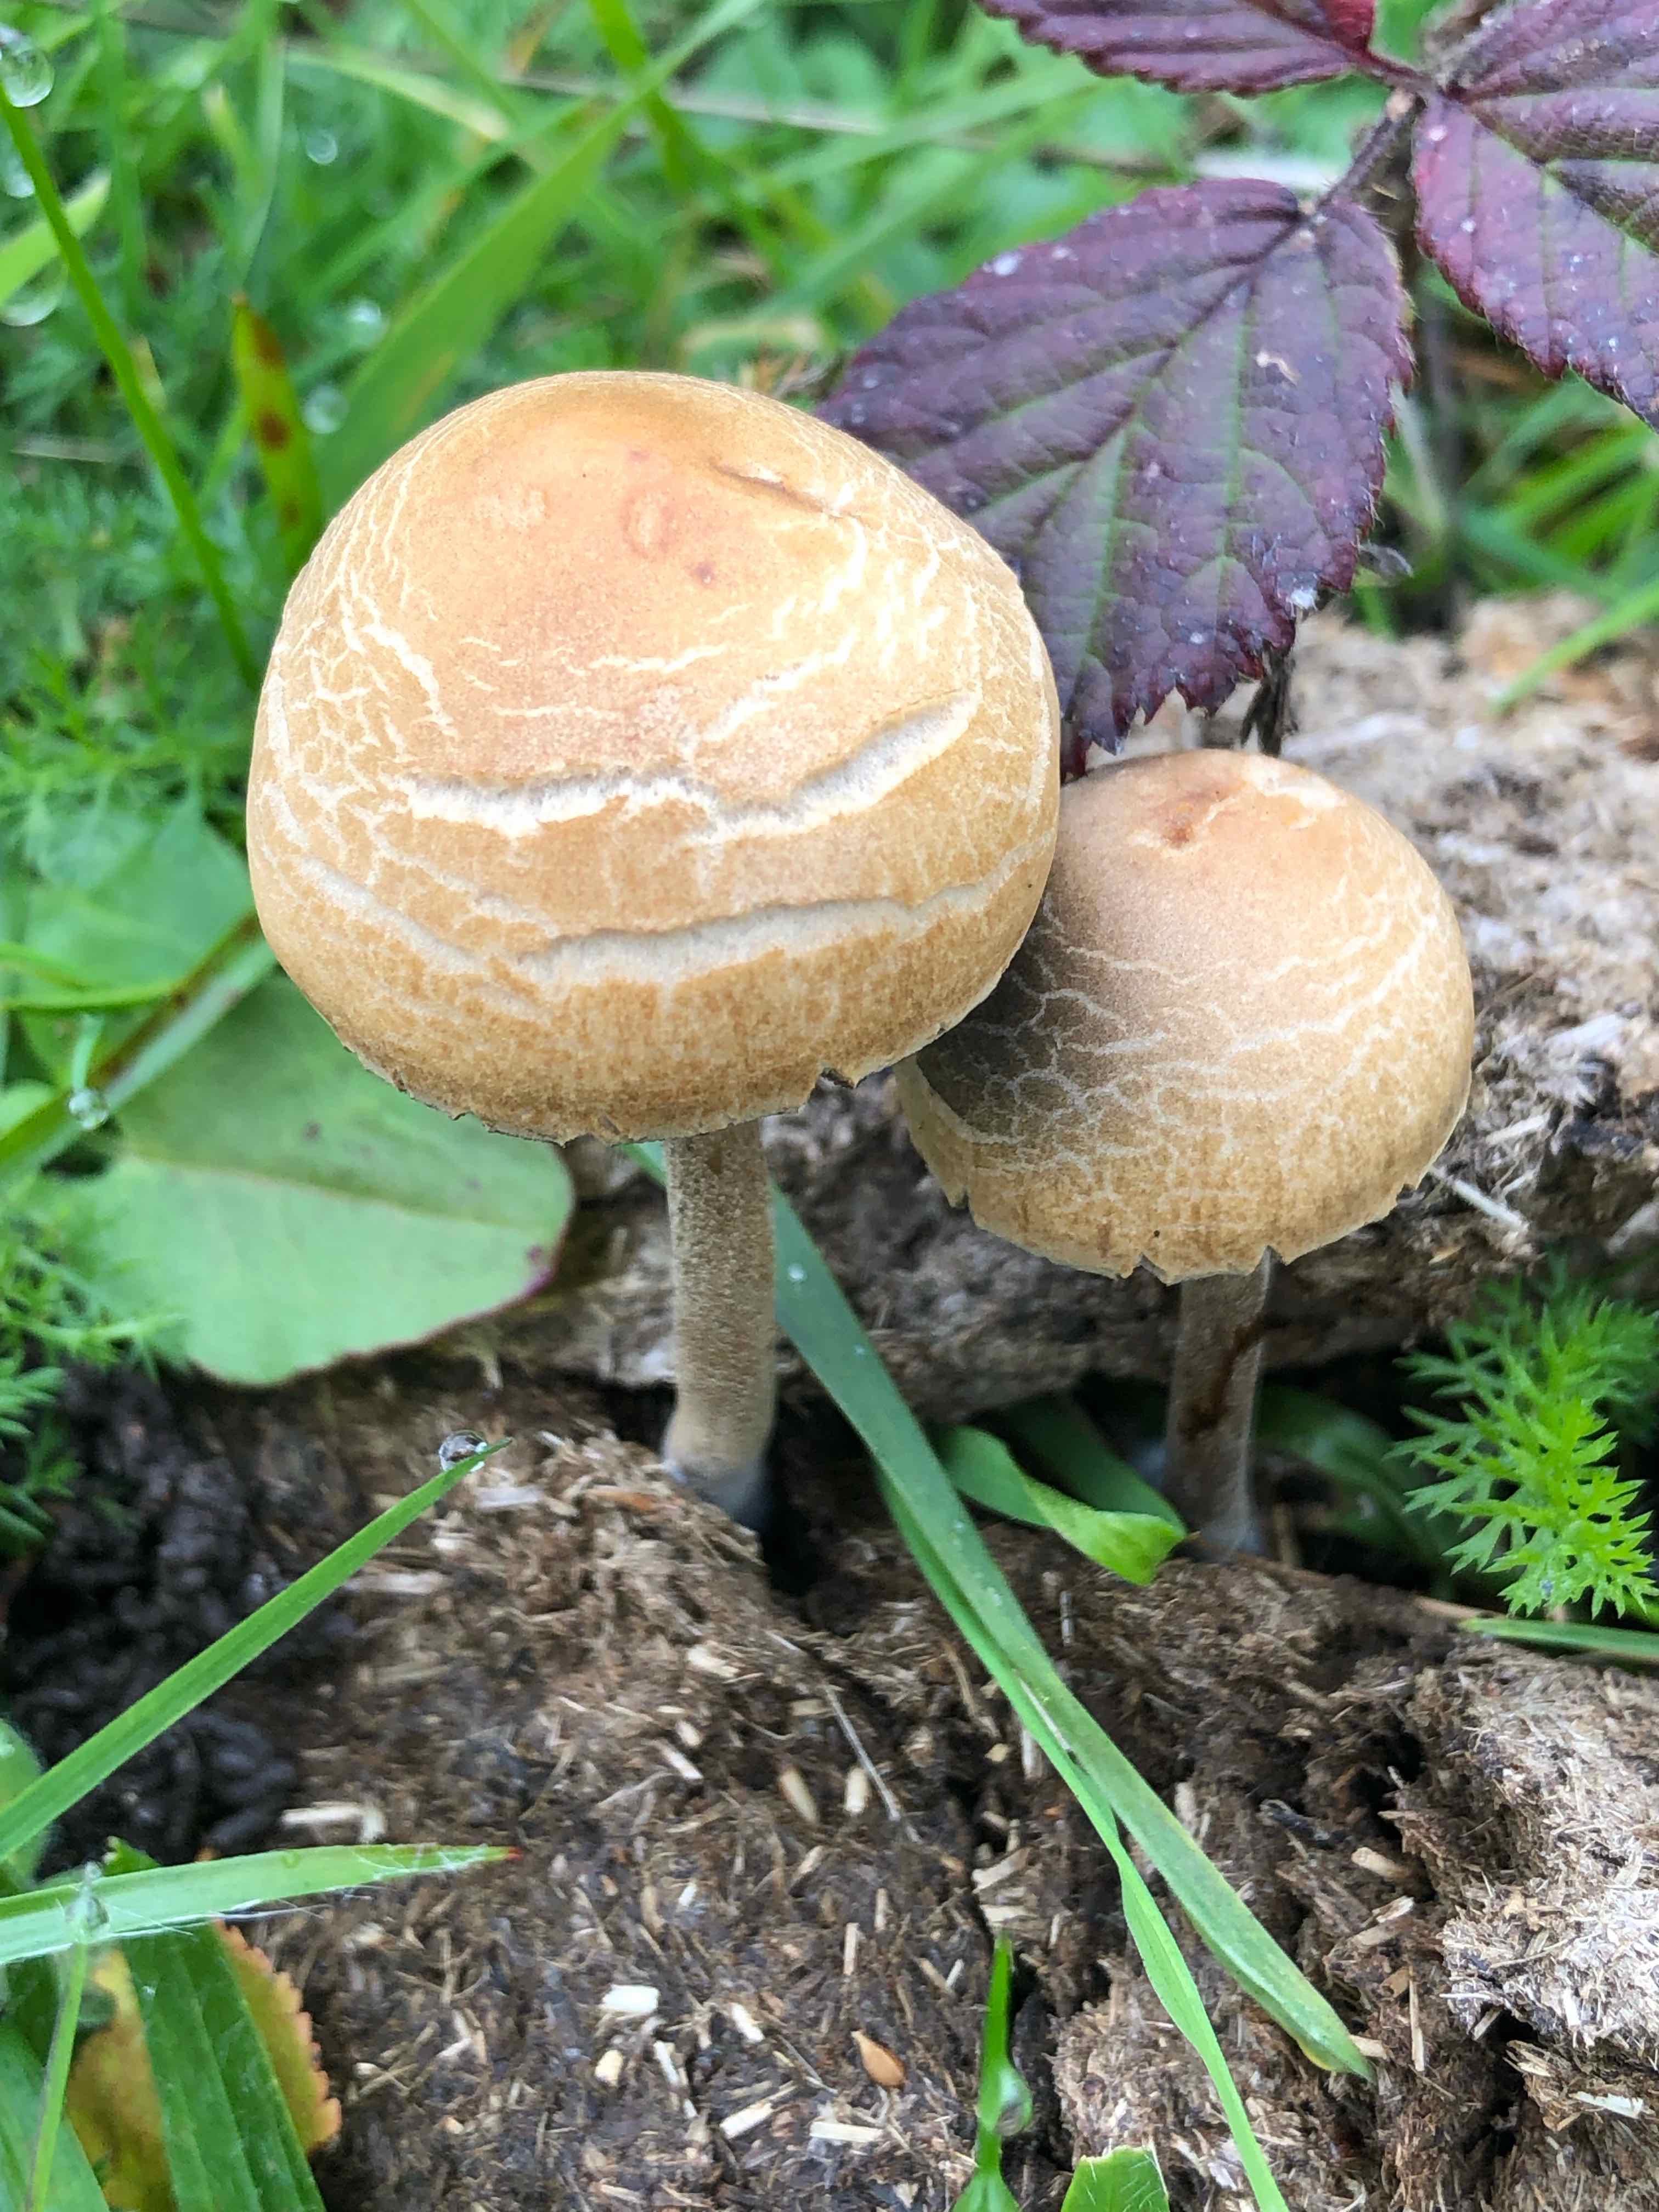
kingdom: Fungi
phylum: Basidiomycota
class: Agaricomycetes
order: Agaricales
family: Bolbitiaceae
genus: Panaeolus
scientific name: Panaeolus
